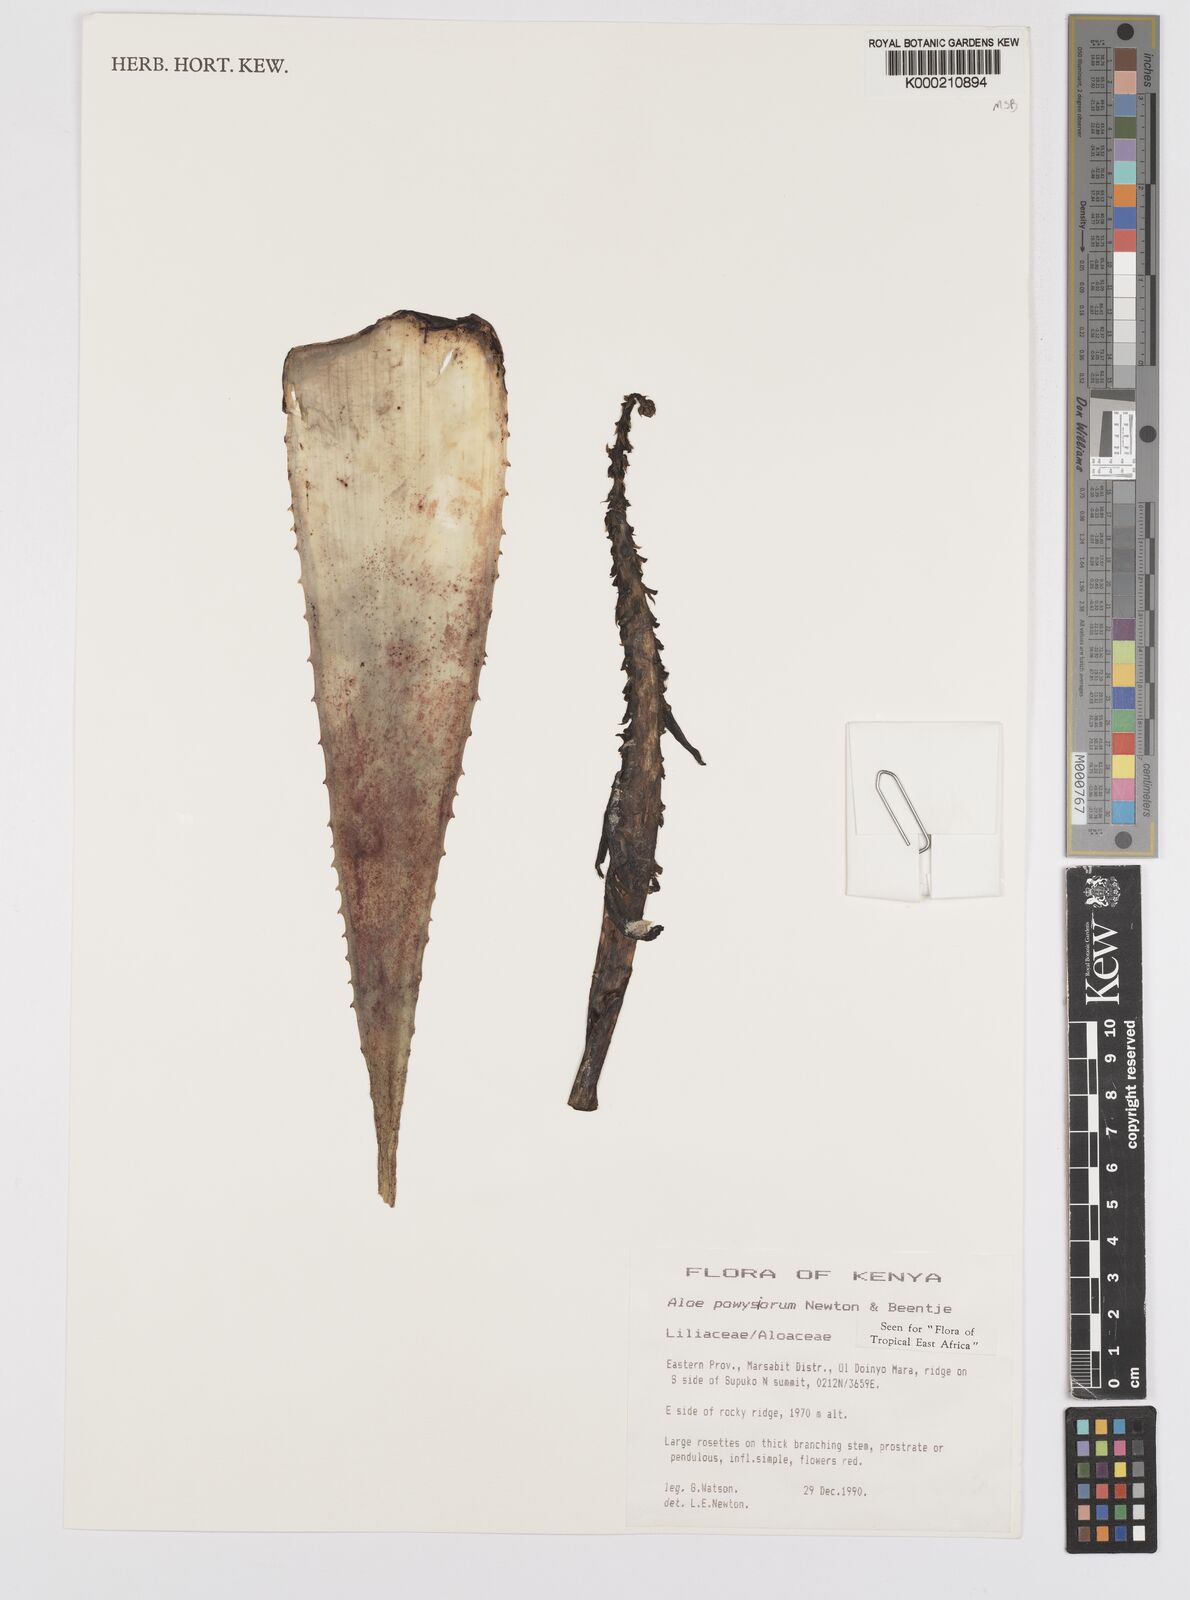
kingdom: Plantae
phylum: Tracheophyta
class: Liliopsida
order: Asparagales
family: Asphodelaceae
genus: Aloe
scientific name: Aloe powysiorum
